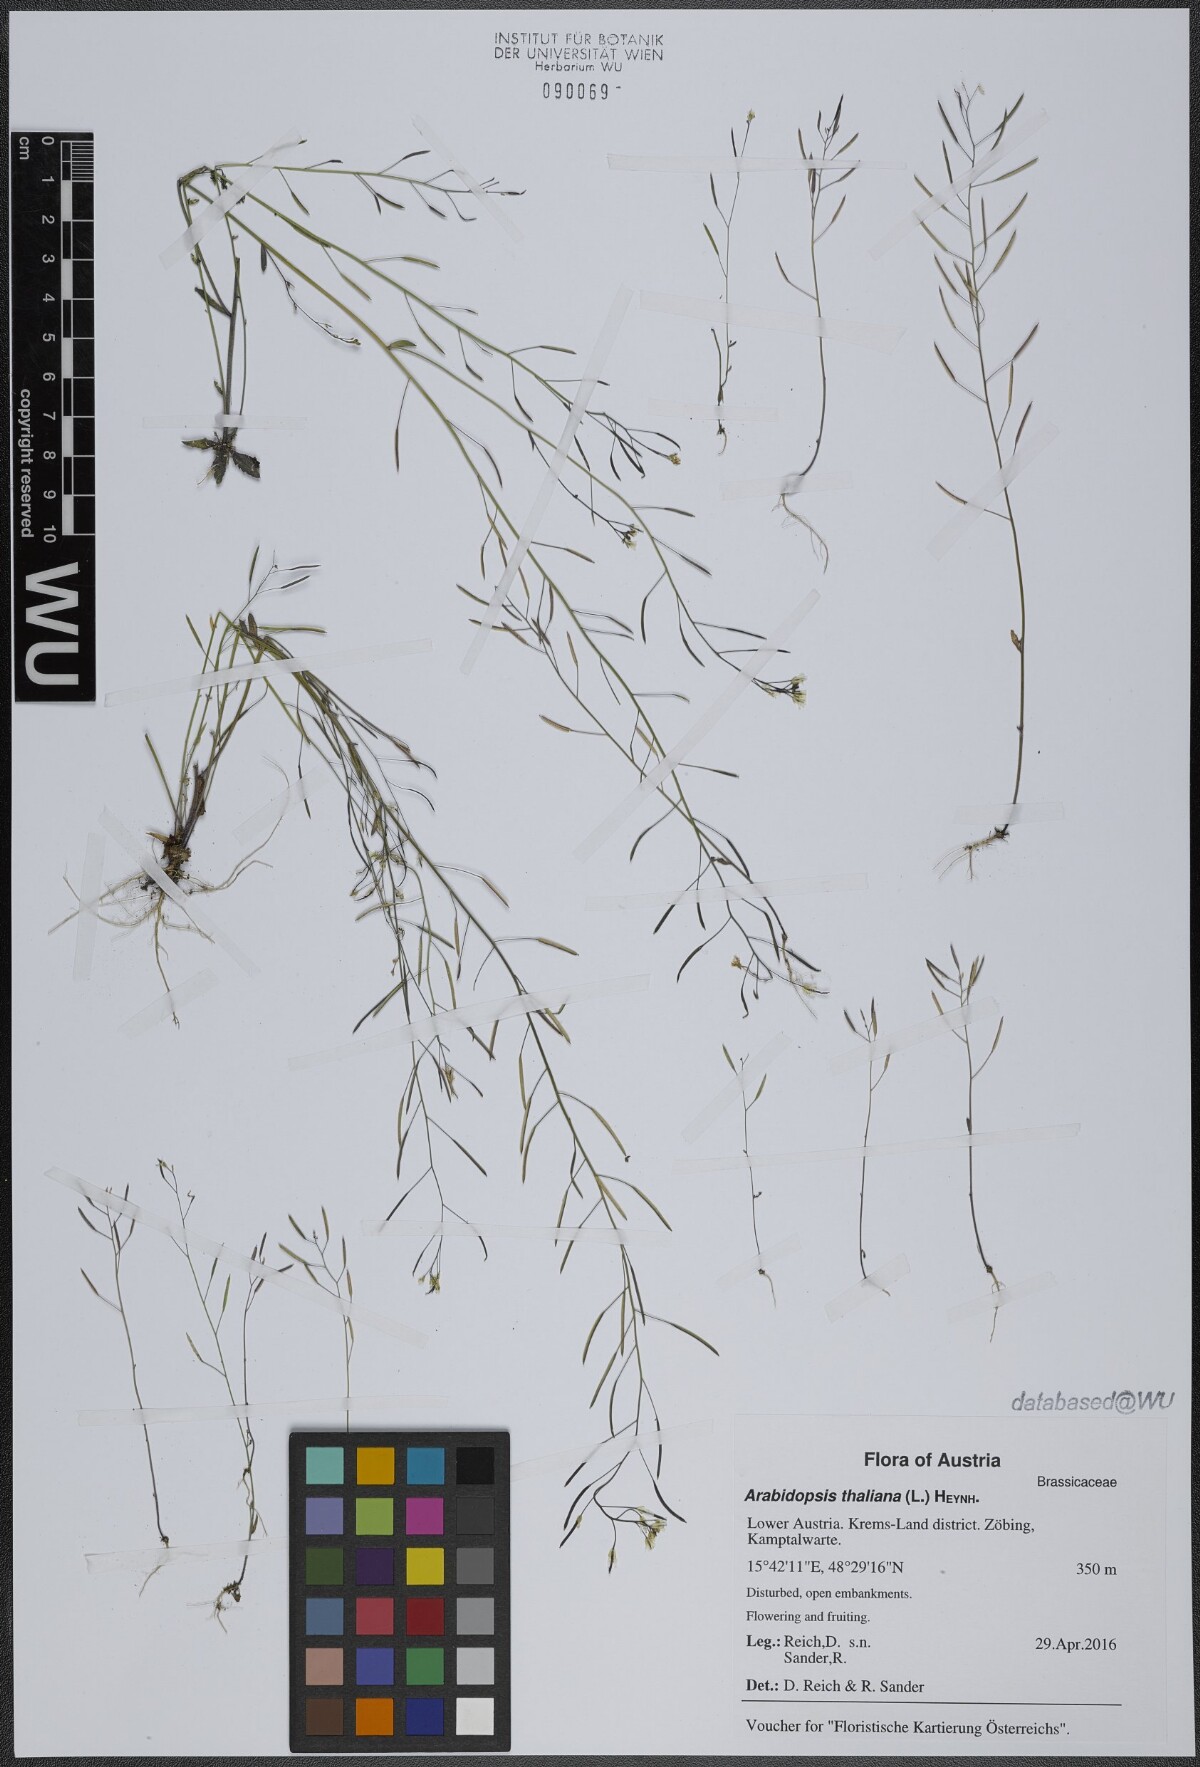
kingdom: Plantae
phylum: Tracheophyta
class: Magnoliopsida
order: Brassicales
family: Brassicaceae
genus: Arabidopsis
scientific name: Arabidopsis thaliana
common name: Thale cress
